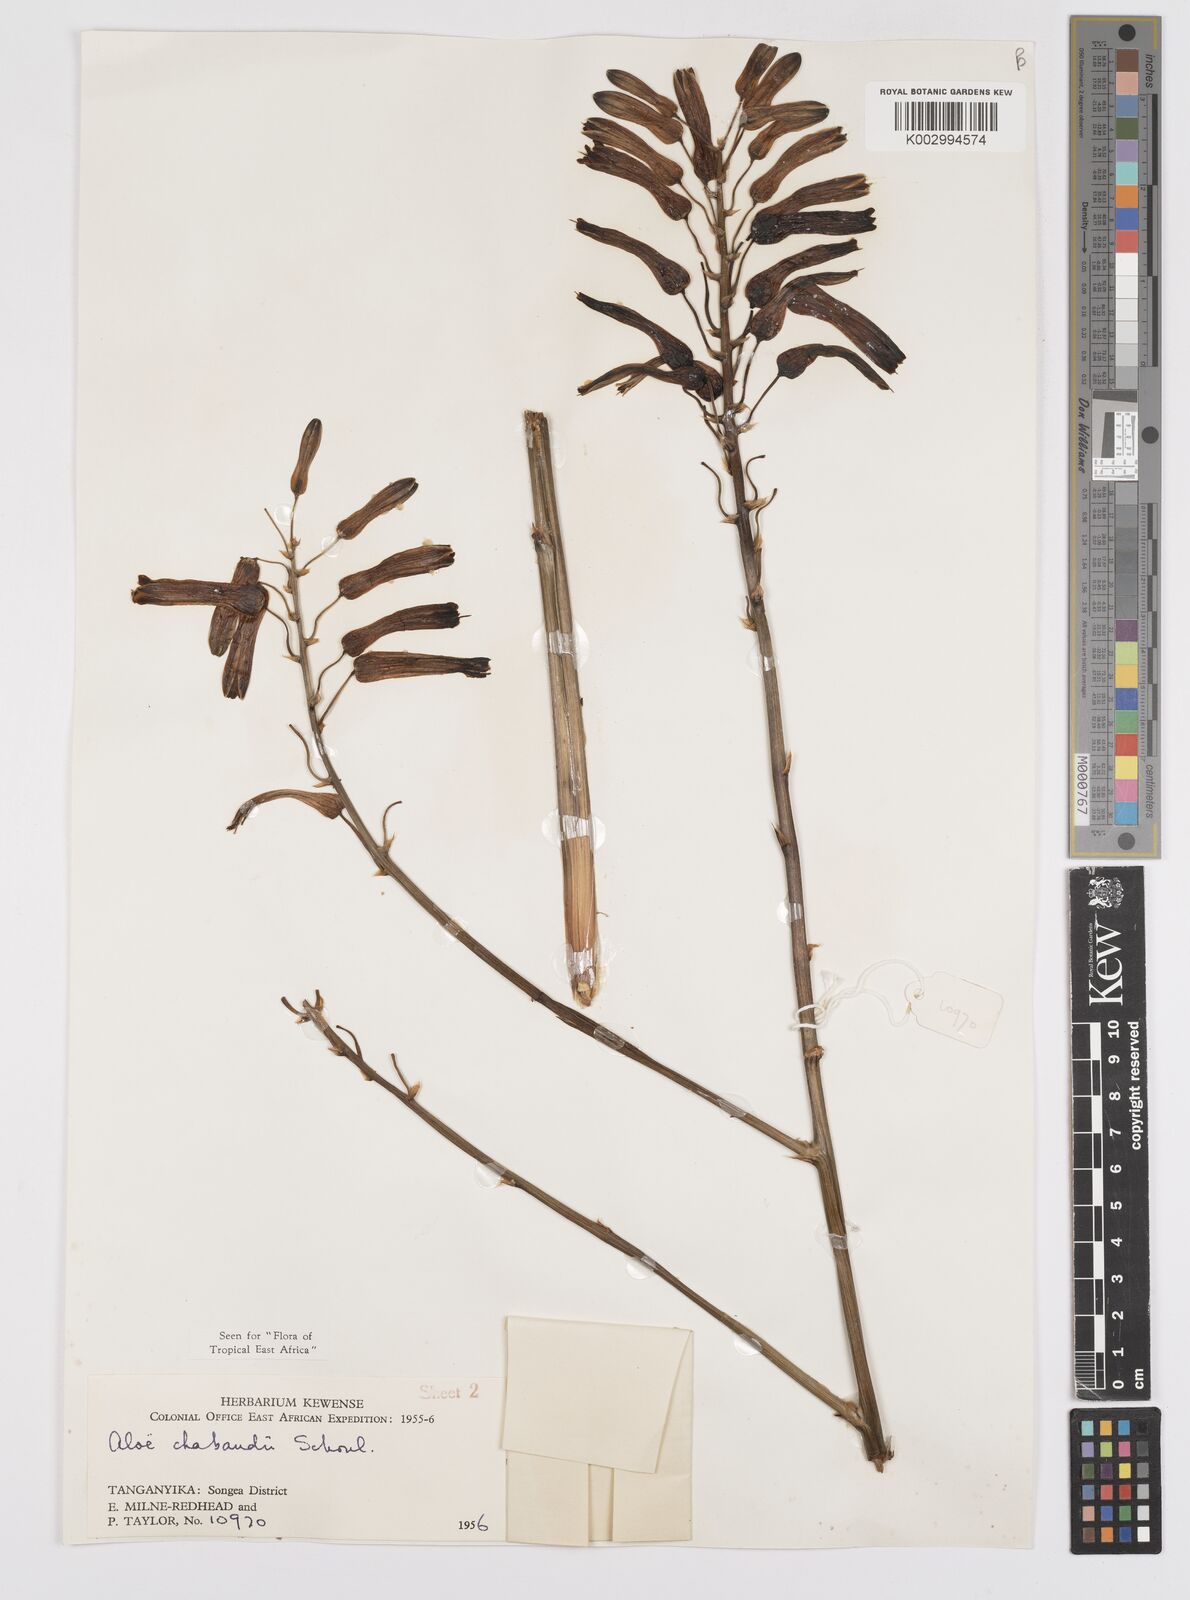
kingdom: Plantae
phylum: Tracheophyta
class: Liliopsida
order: Asparagales
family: Asphodelaceae
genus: Aloe
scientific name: Aloe chabaudii
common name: Chabaud's aloe
